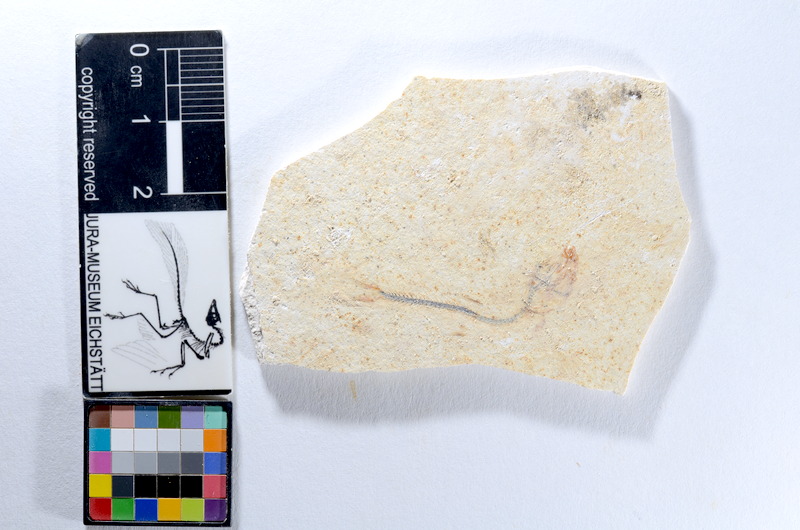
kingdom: Animalia
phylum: Chordata
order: Salmoniformes
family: Orthogonikleithridae
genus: Orthogonikleithrus
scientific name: Orthogonikleithrus hoelli
